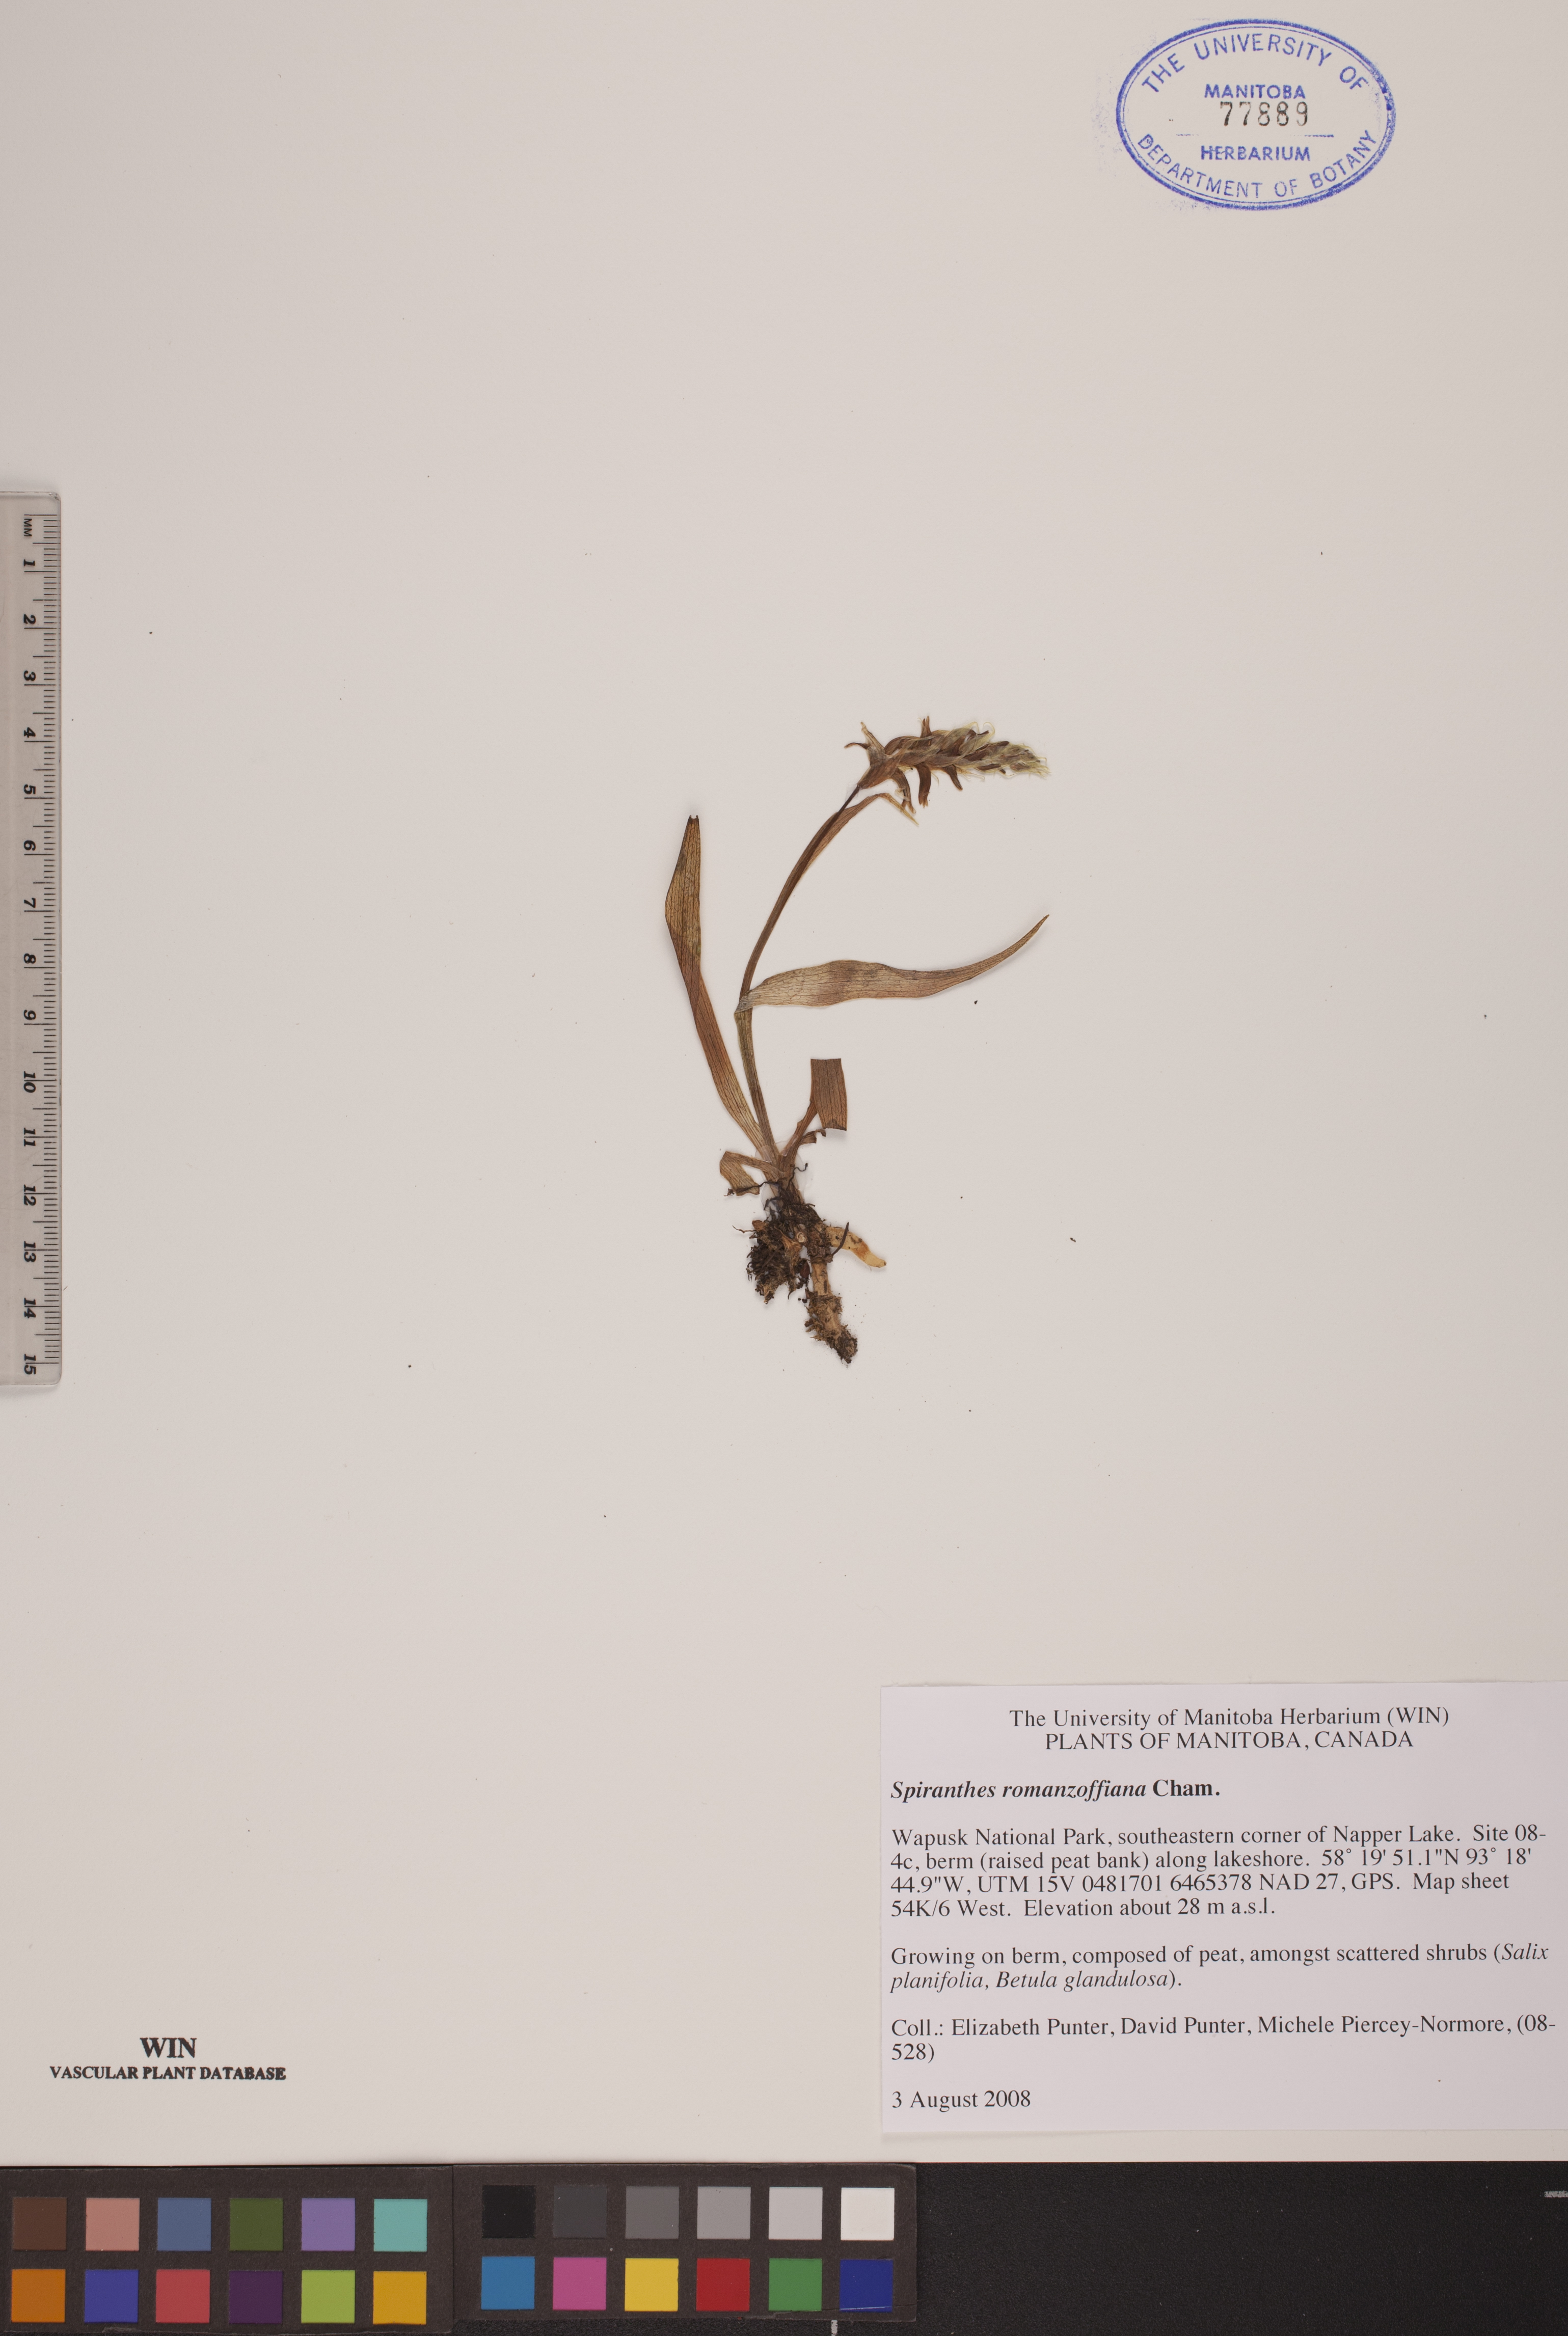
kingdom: Plantae
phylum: Tracheophyta
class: Liliopsida
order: Asparagales
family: Orchidaceae
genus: Spiranthes
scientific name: Spiranthes romanzoffiana
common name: Irish lady's-tresses
